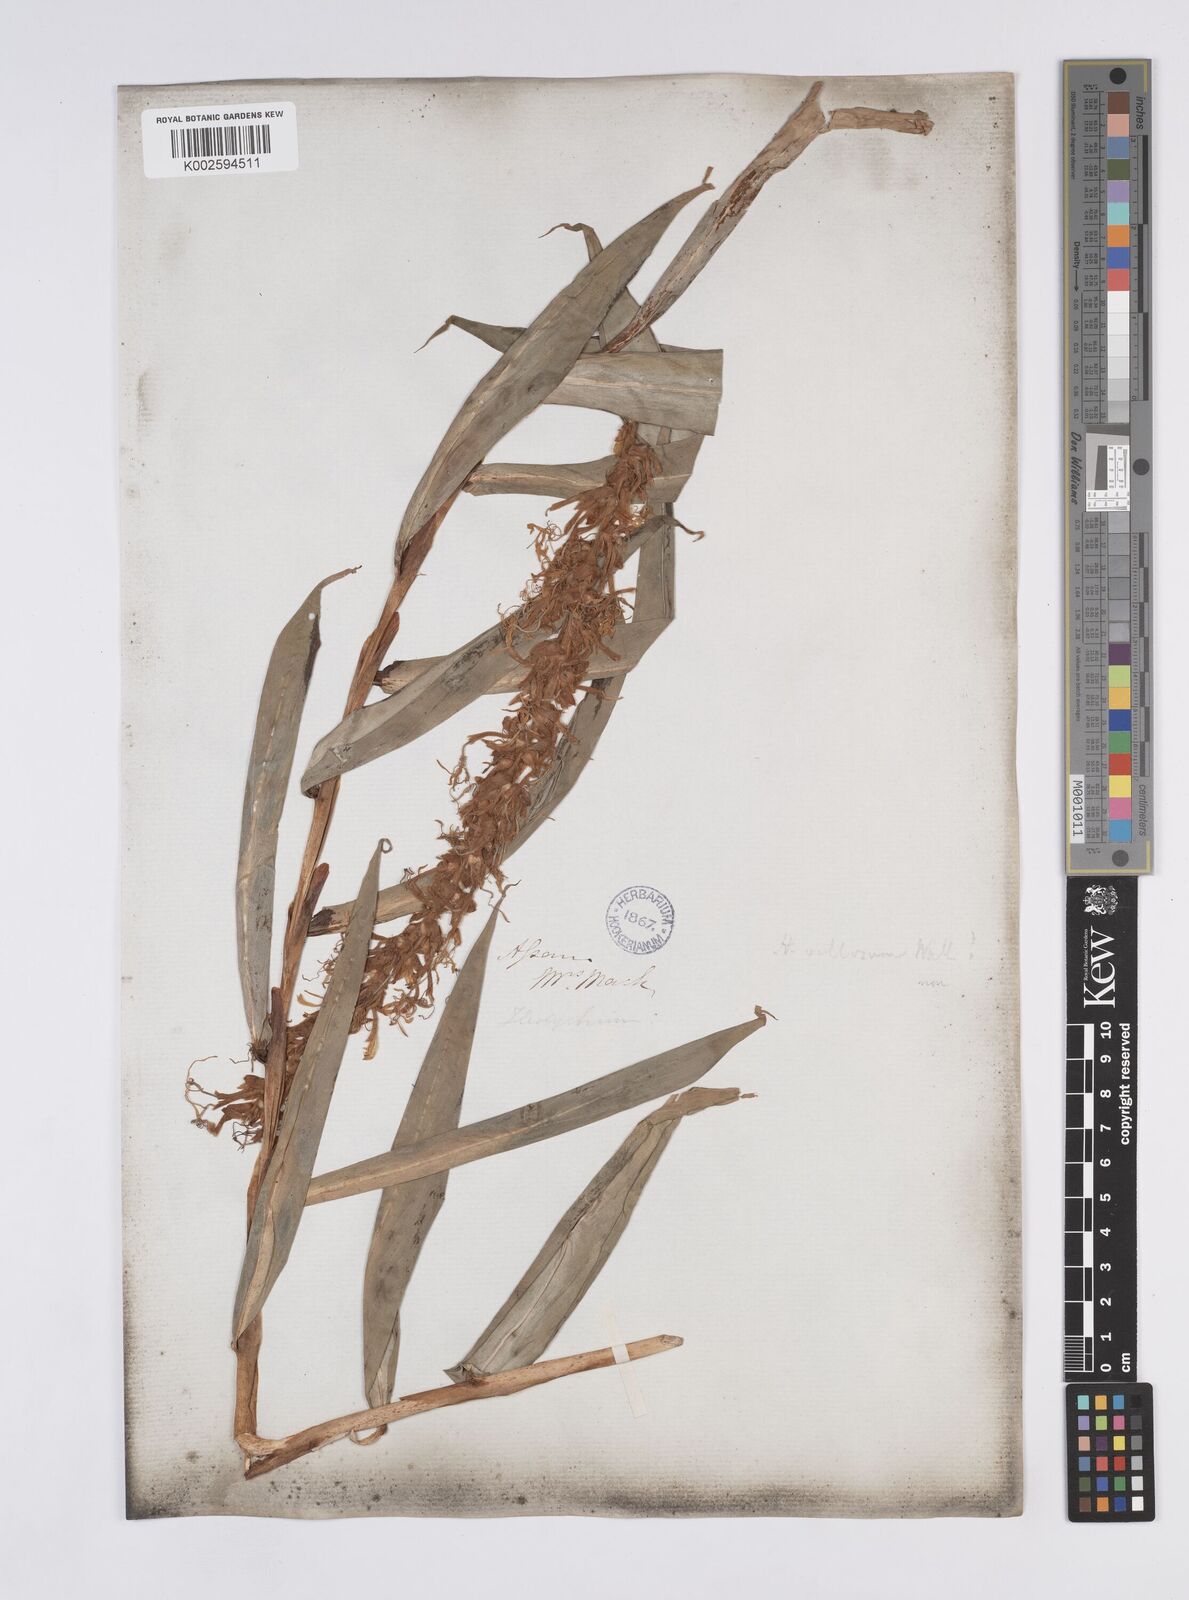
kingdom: Plantae
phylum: Tracheophyta
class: Liliopsida
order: Zingiberales
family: Zingiberaceae
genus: Hedychium
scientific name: Hedychium villosum
